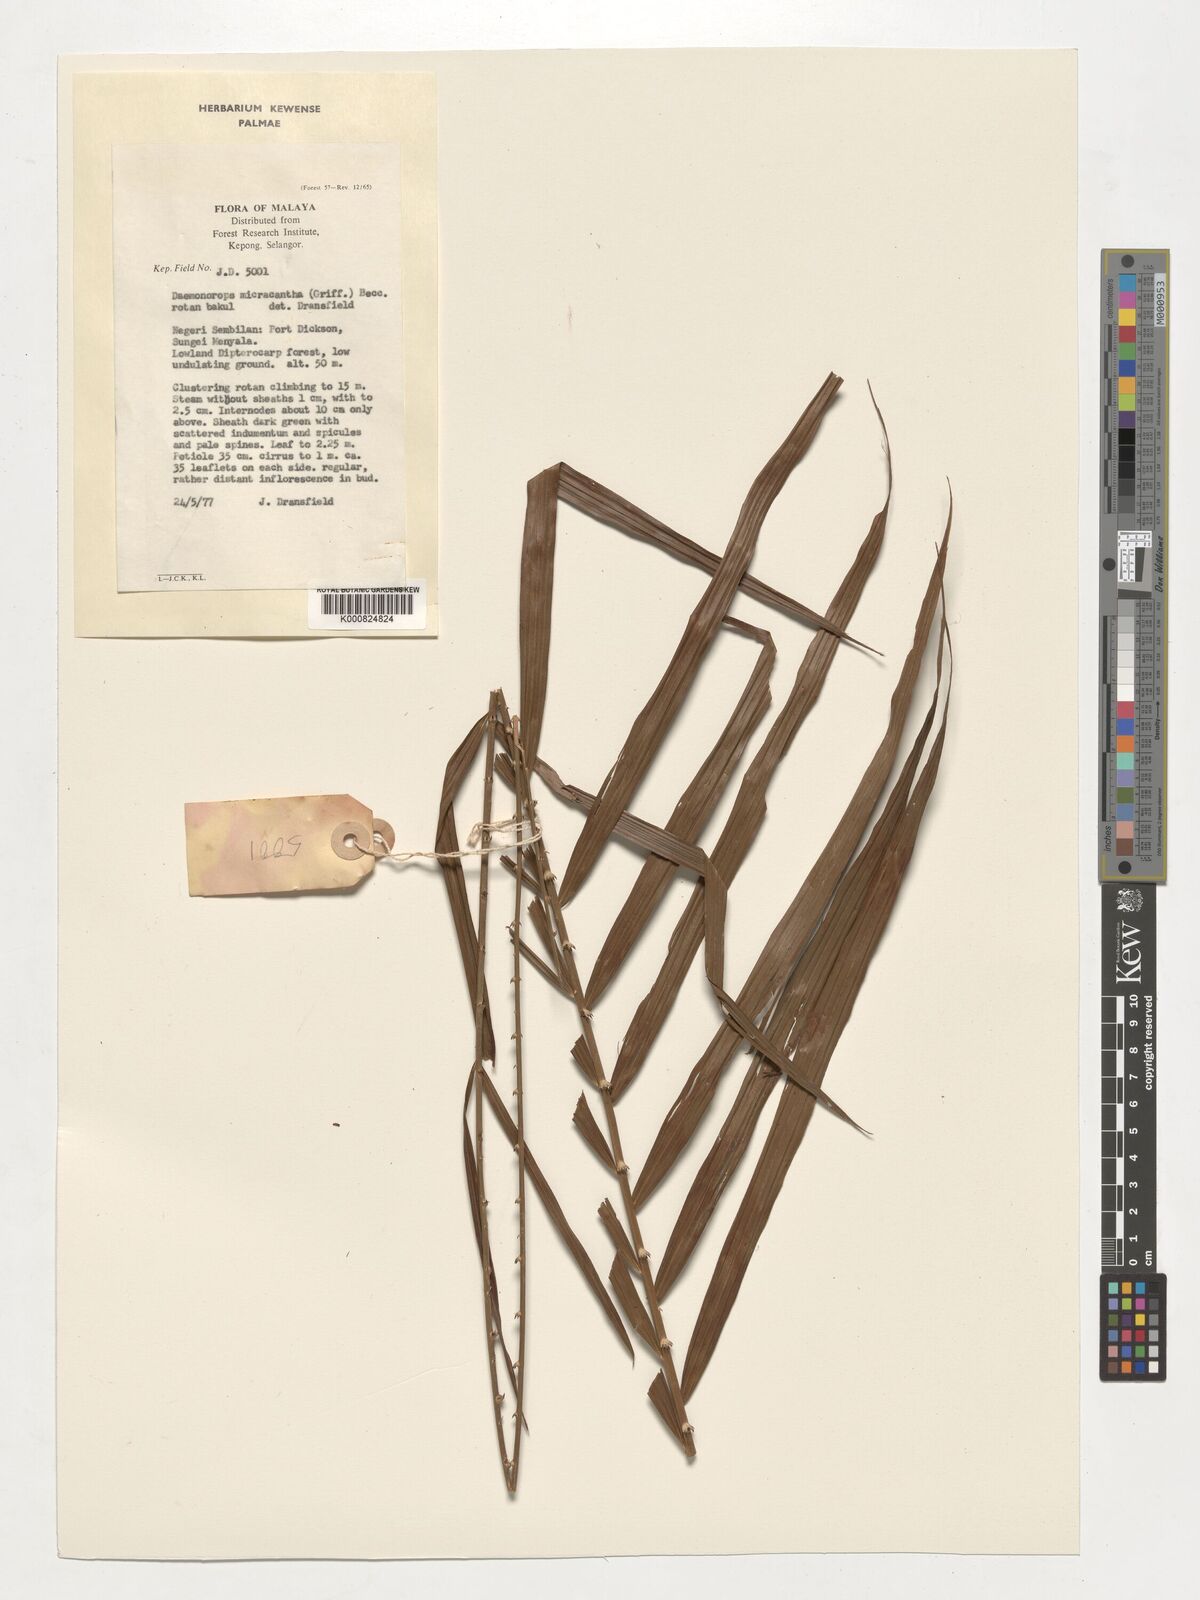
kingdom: Plantae
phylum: Tracheophyta
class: Liliopsida
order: Arecales
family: Arecaceae
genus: Calamus
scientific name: Calamus micracanthus
